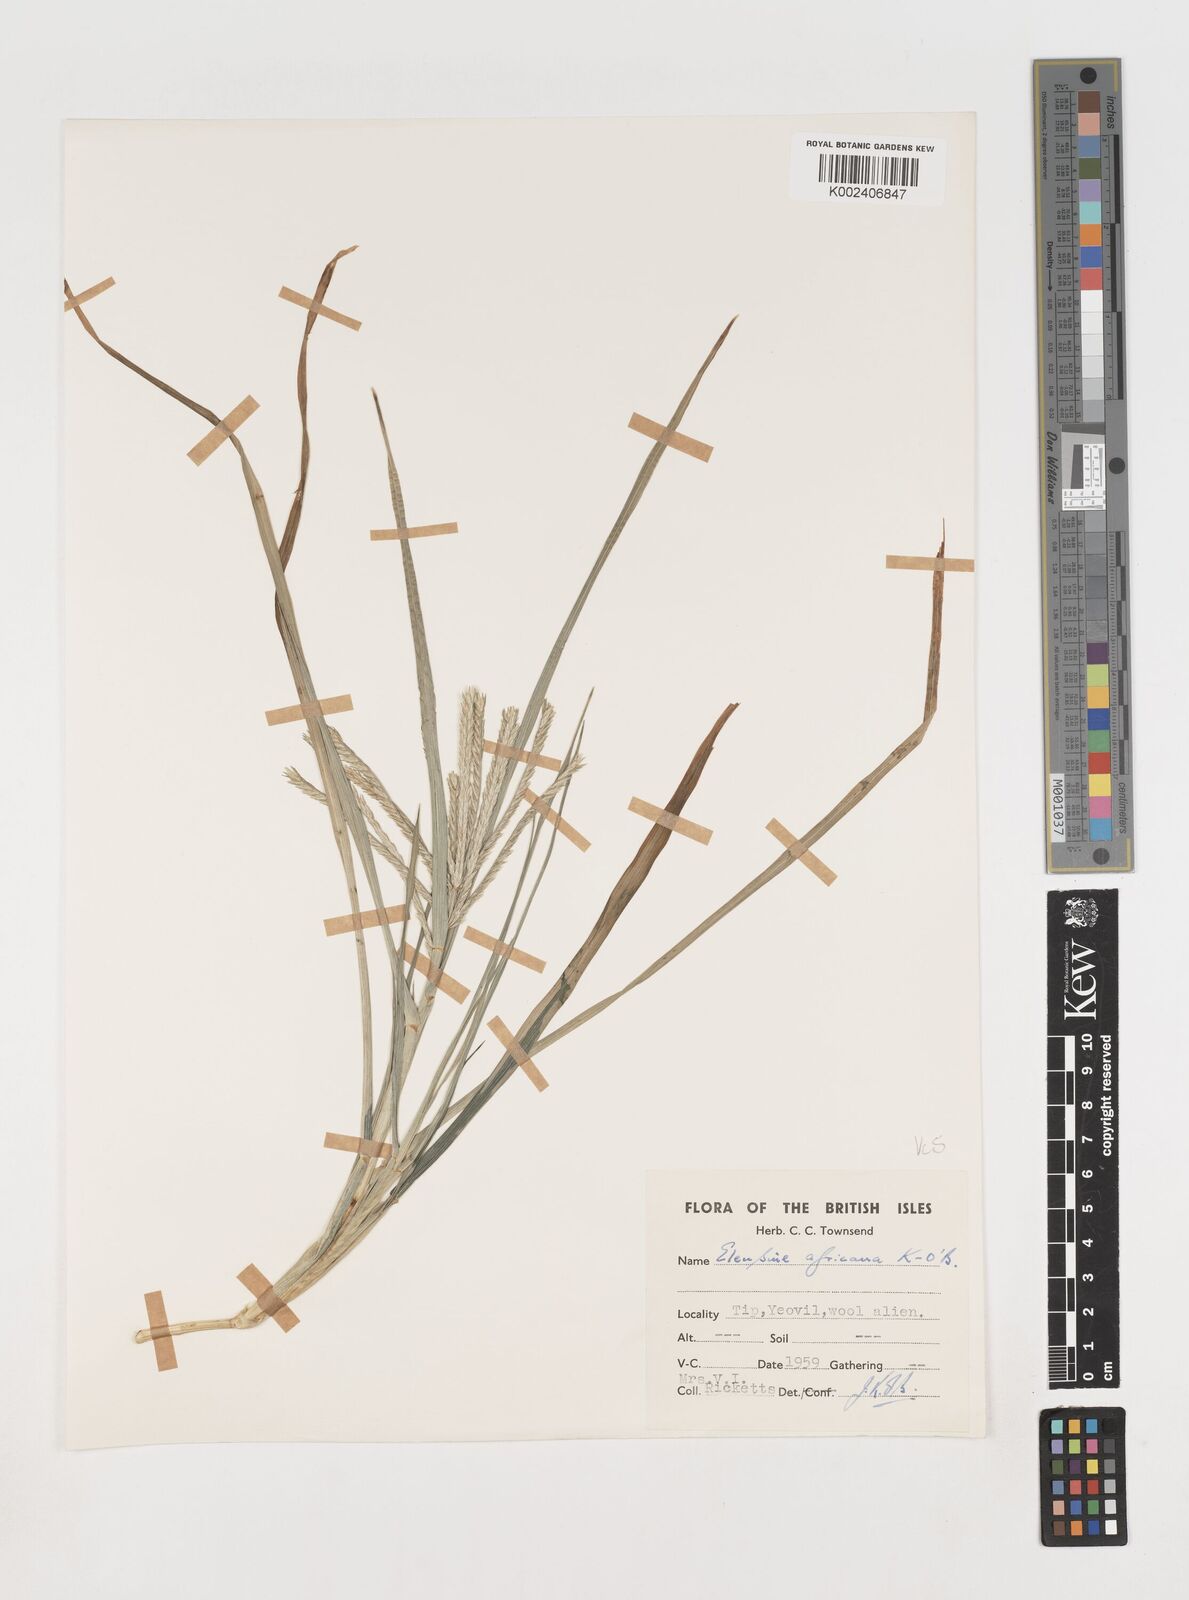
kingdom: Plantae
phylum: Tracheophyta
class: Liliopsida
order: Poales
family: Poaceae
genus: Eleusine
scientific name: Eleusine africana
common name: Wild african finger millet
